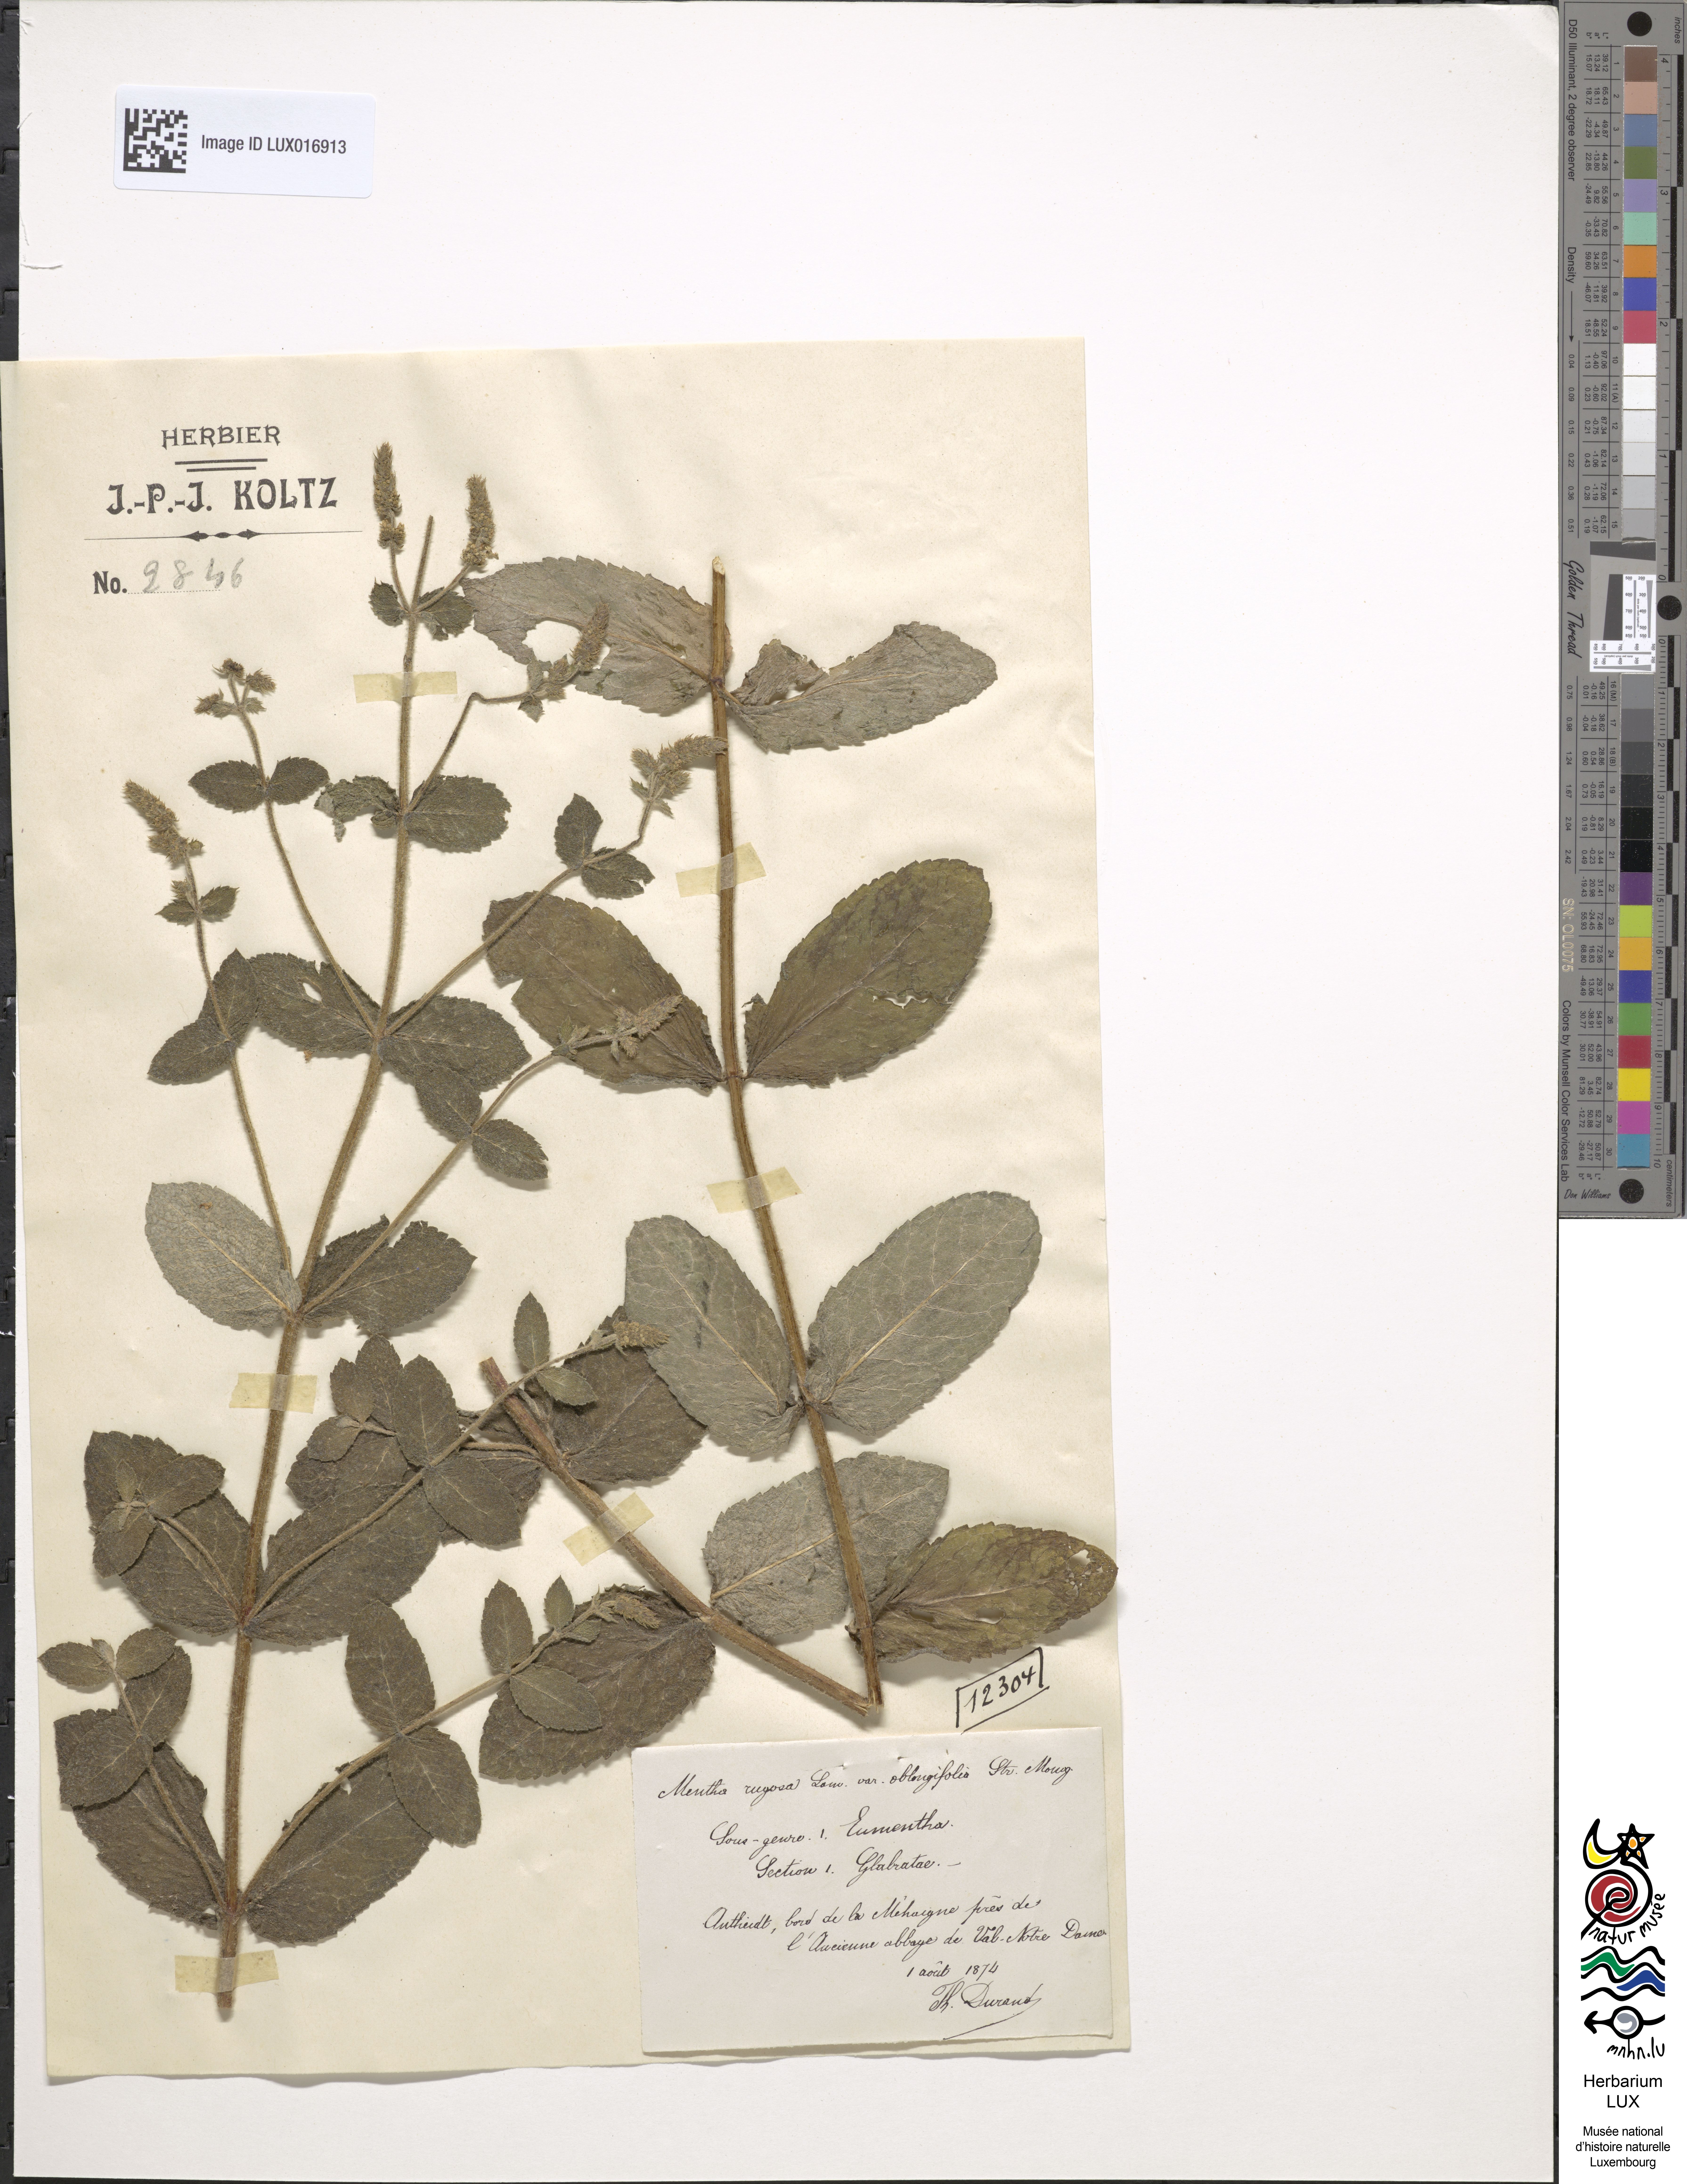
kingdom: Plantae
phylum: Tracheophyta
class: Magnoliopsida
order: Lamiales
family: Lamiaceae
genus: Mentha
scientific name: Mentha suaveolens
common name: Apple mint
